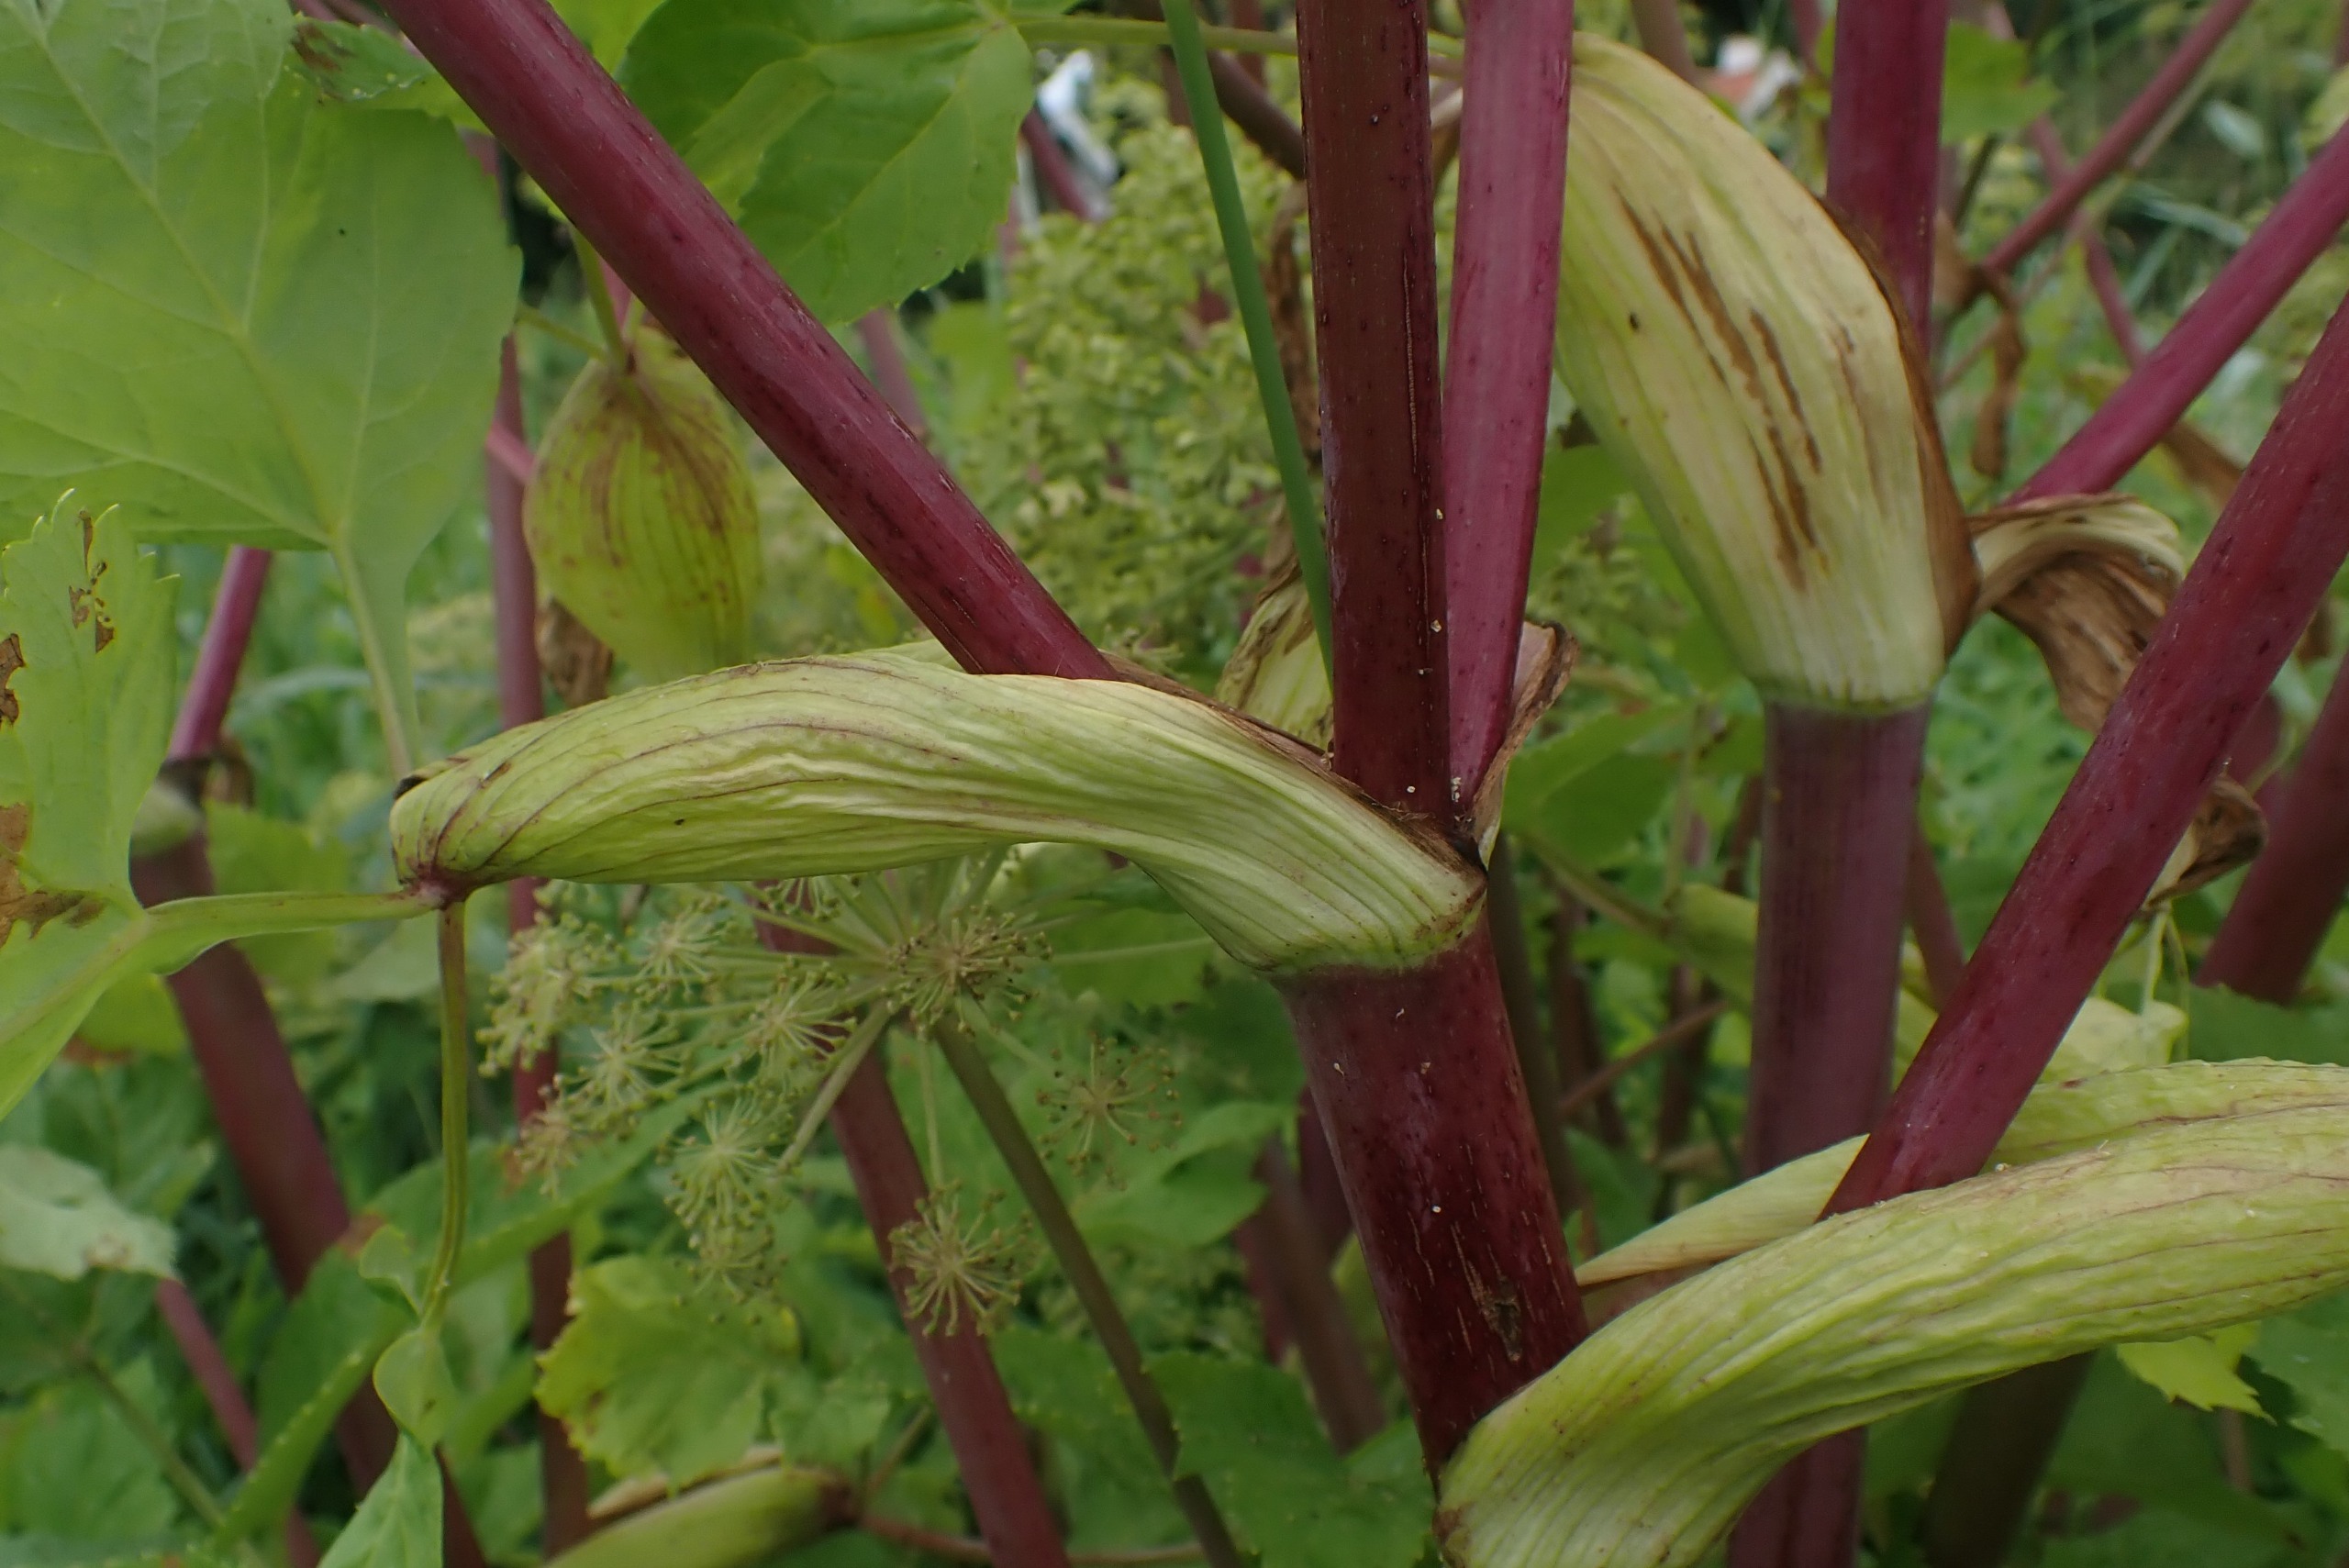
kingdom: Plantae
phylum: Tracheophyta
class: Magnoliopsida
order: Apiales
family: Apiaceae
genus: Angelica
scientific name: Angelica archangelica
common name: Kvan
